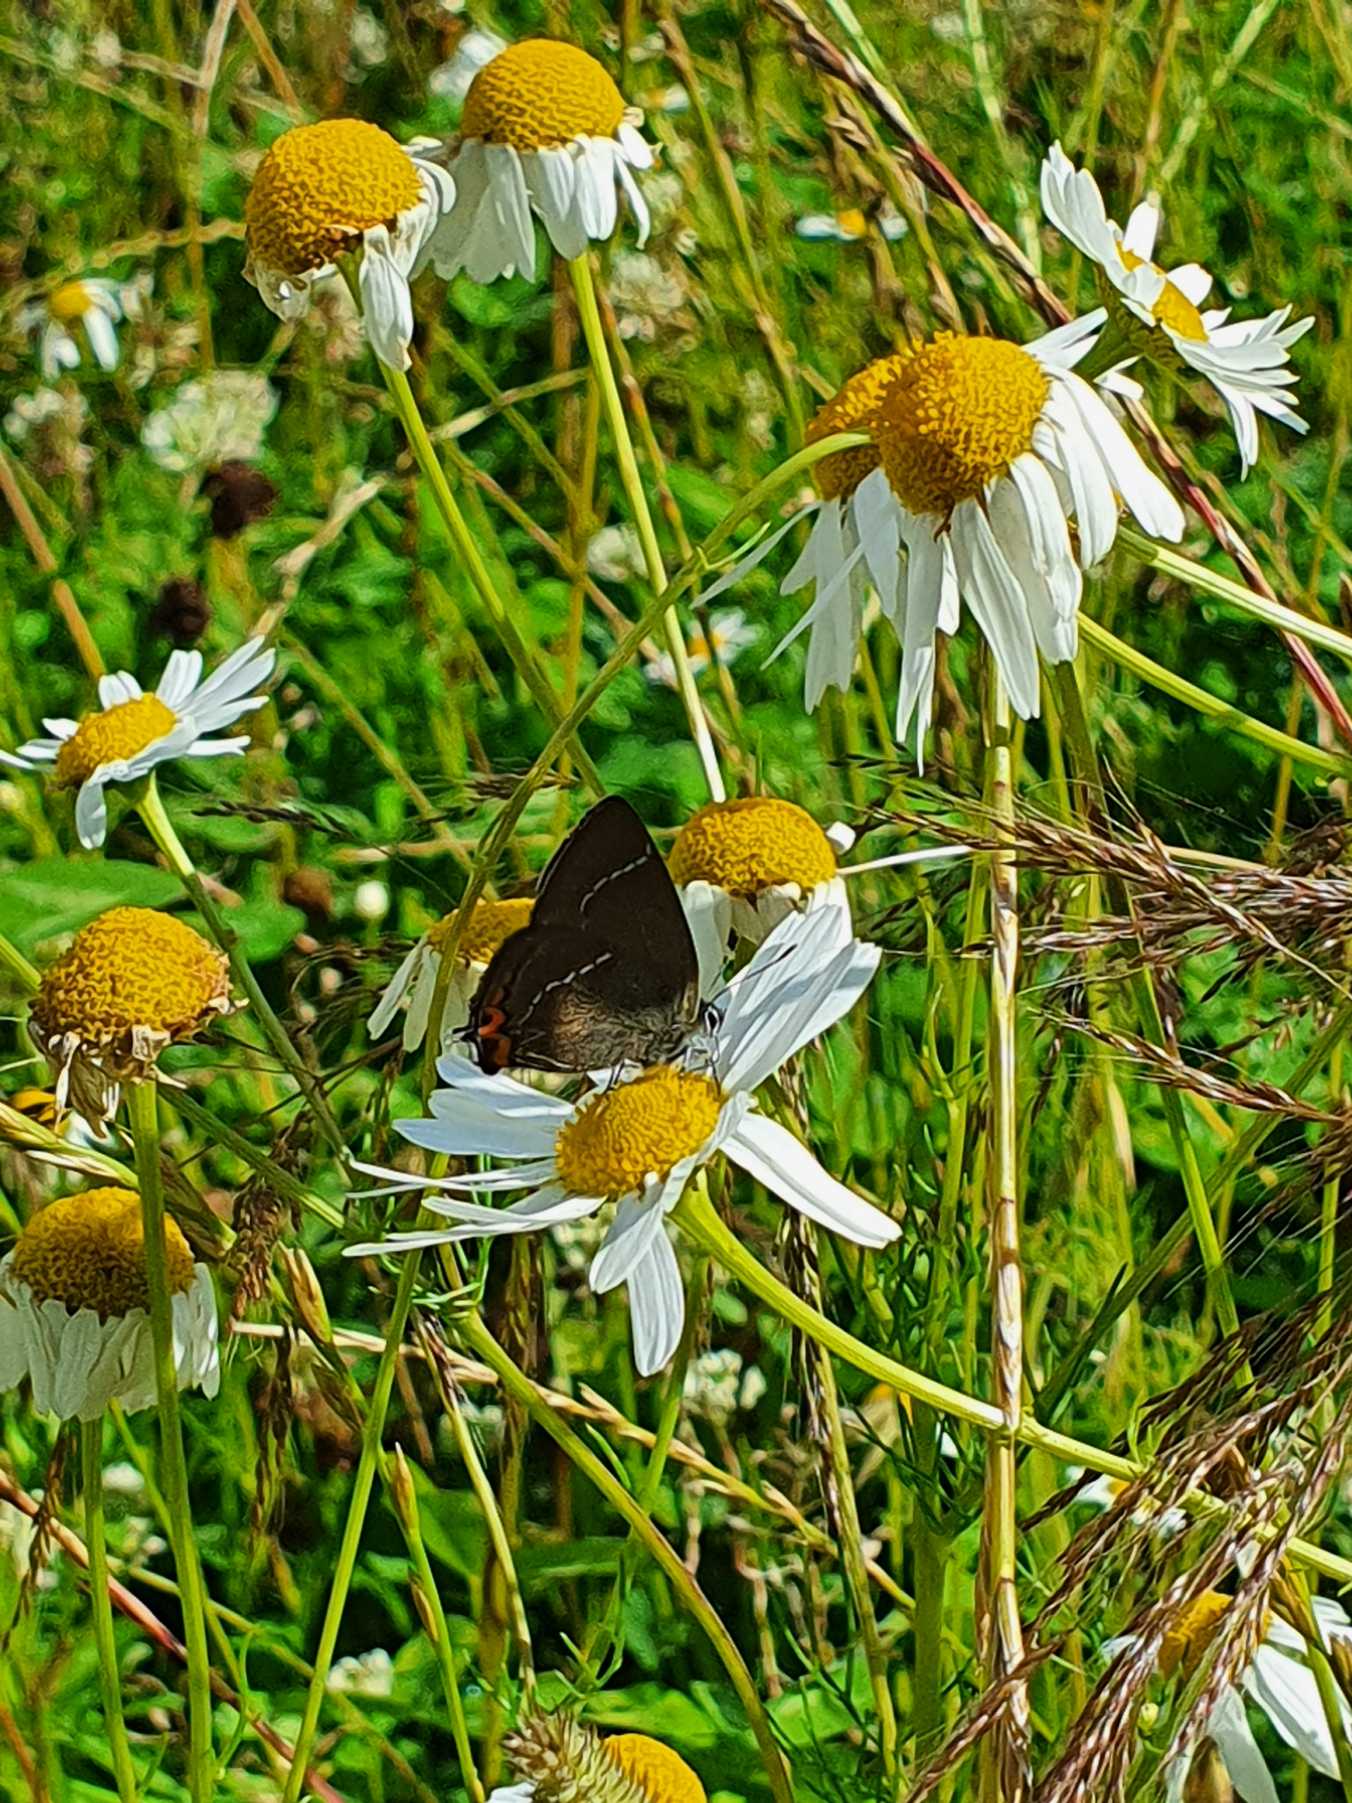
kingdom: Animalia
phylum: Arthropoda
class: Insecta
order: Lepidoptera
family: Lycaenidae
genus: Satyrium
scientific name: Satyrium w-album
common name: Det hvide W
